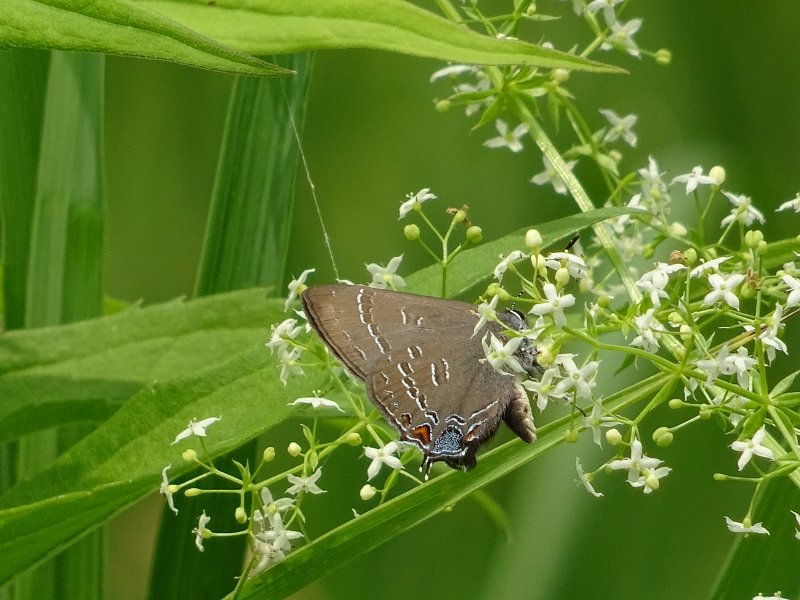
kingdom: Animalia
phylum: Arthropoda
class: Insecta
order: Lepidoptera
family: Lycaenidae
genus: Satyrium
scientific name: Satyrium calanus
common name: Banded Hairstreak
